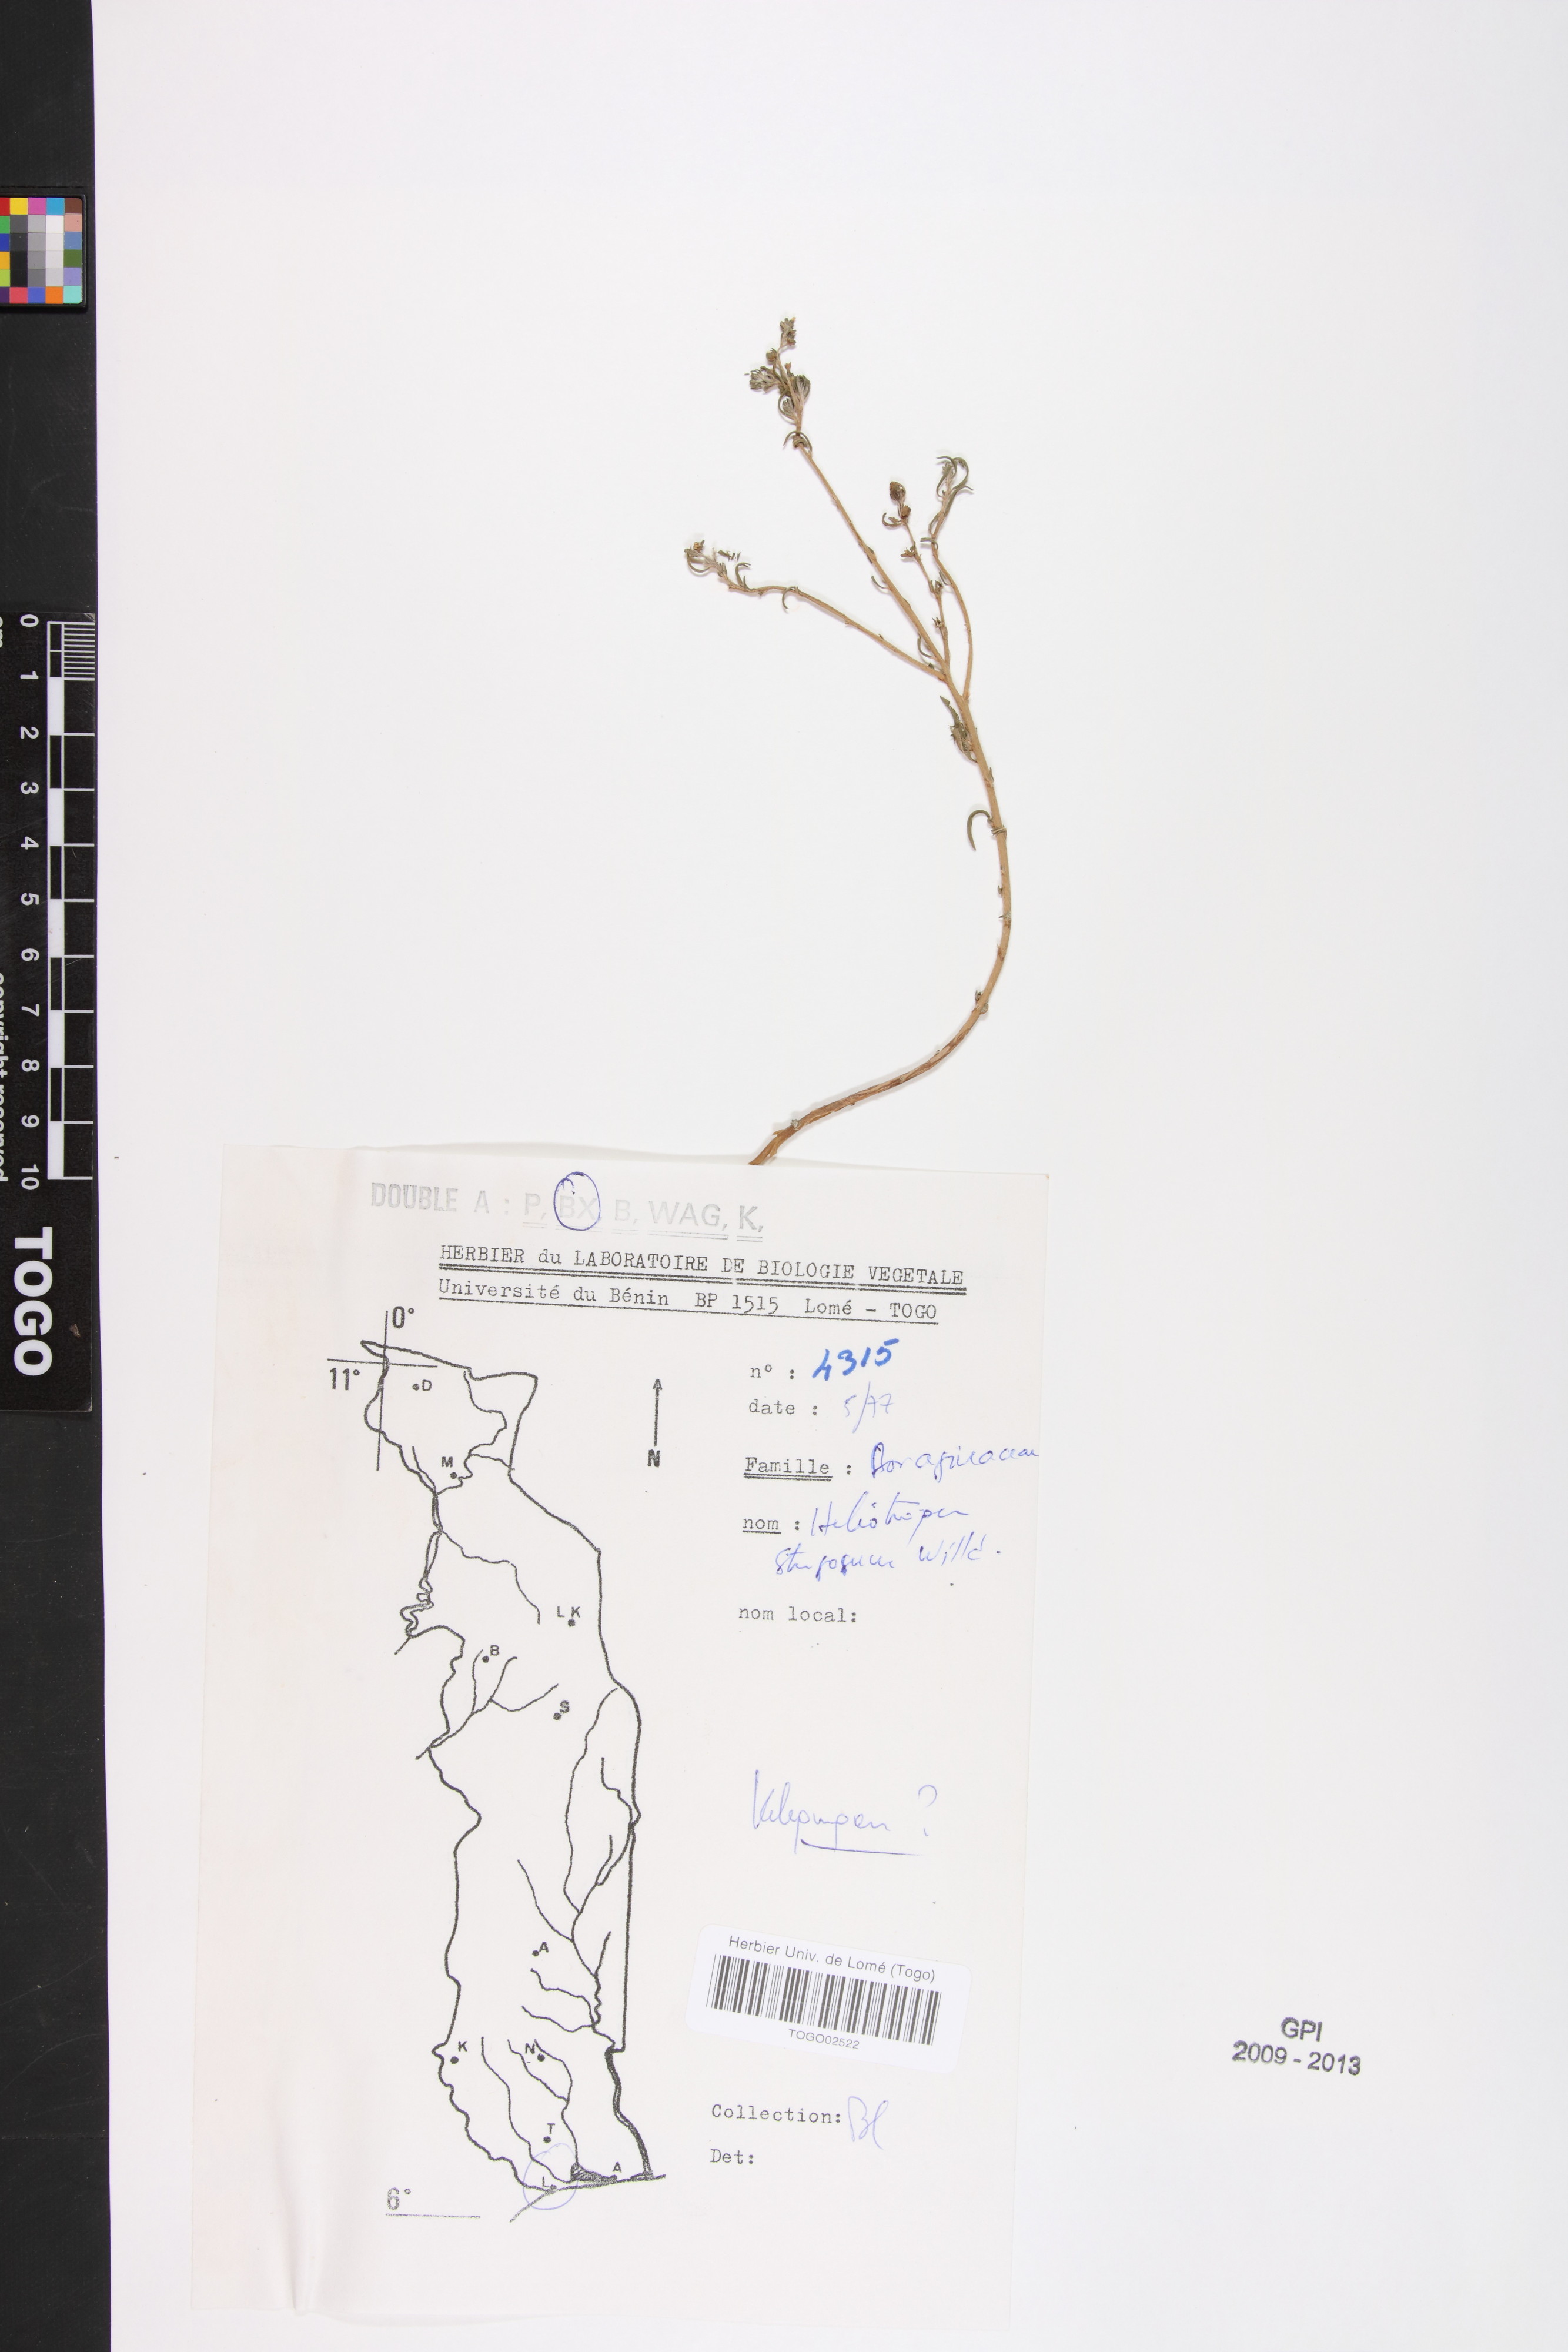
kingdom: Plantae
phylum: Tracheophyta
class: Magnoliopsida
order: Boraginales
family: Heliotropiaceae
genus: Euploca
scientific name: Euploca strigosa
